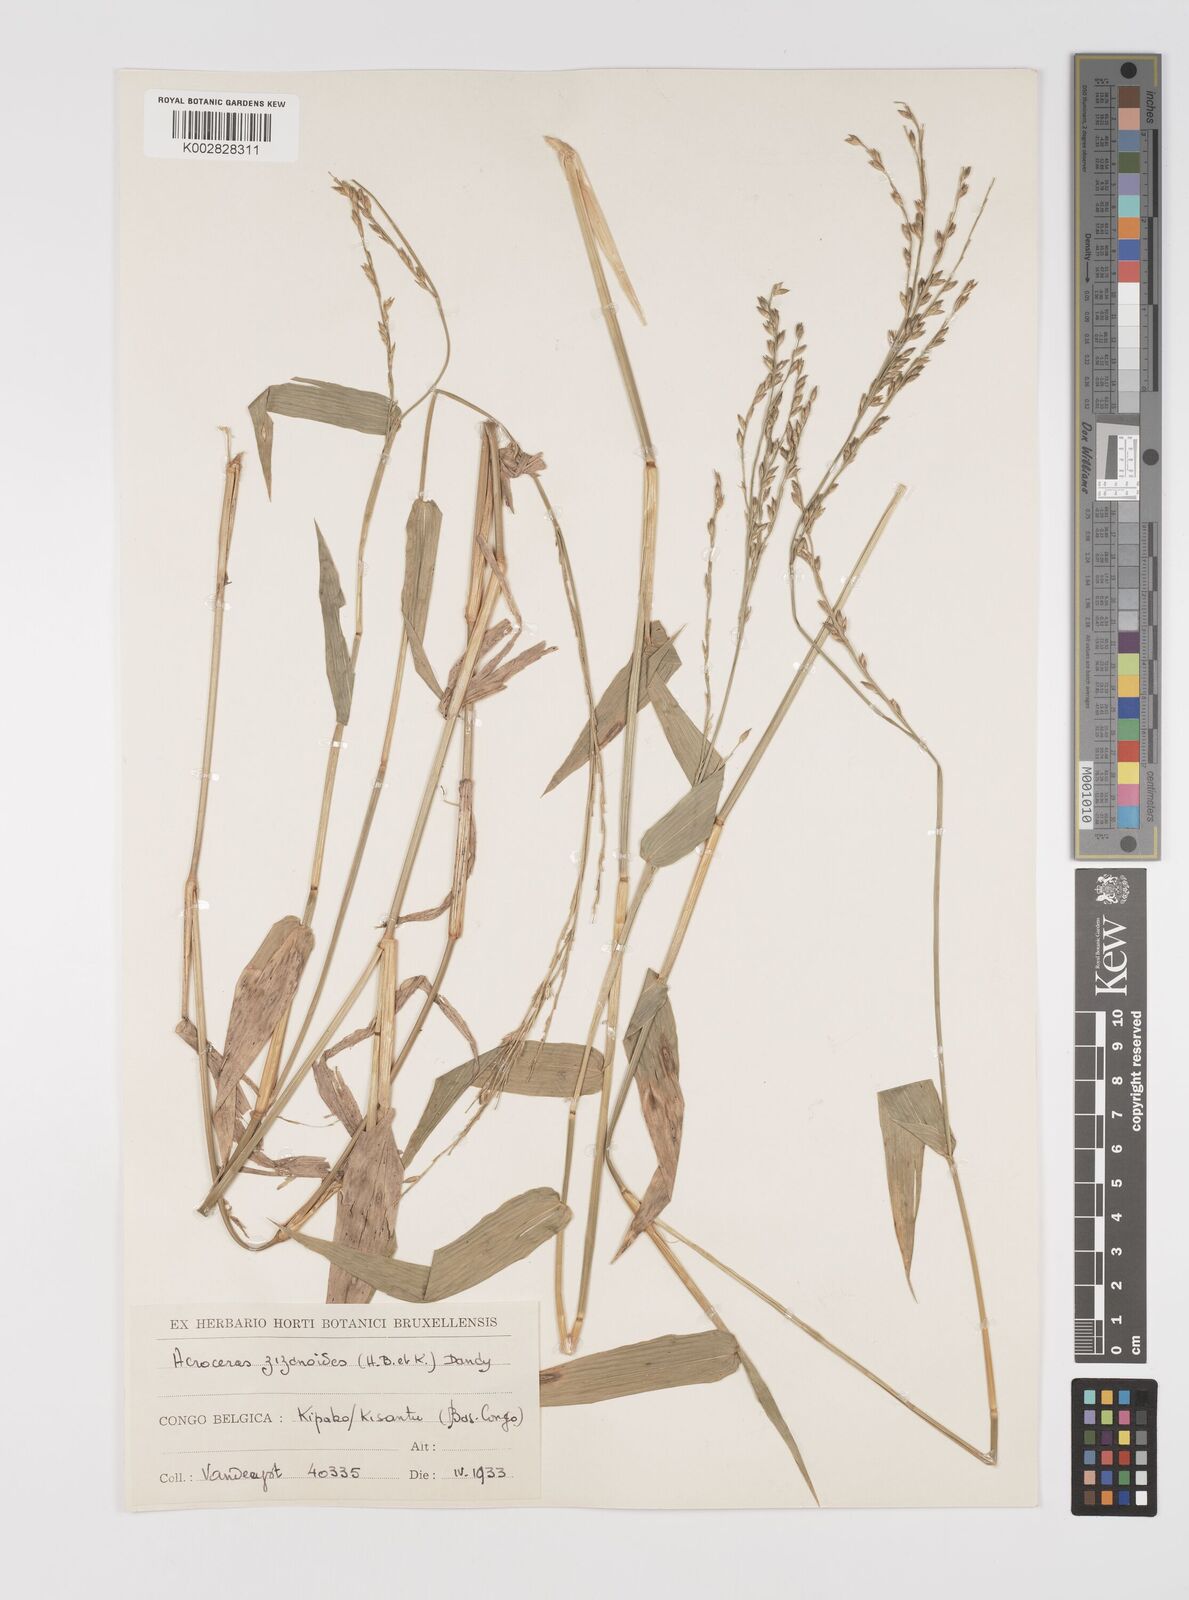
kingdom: Plantae
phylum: Tracheophyta
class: Liliopsida
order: Poales
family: Poaceae
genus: Acroceras
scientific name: Acroceras zizanioides
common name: Oat grass
